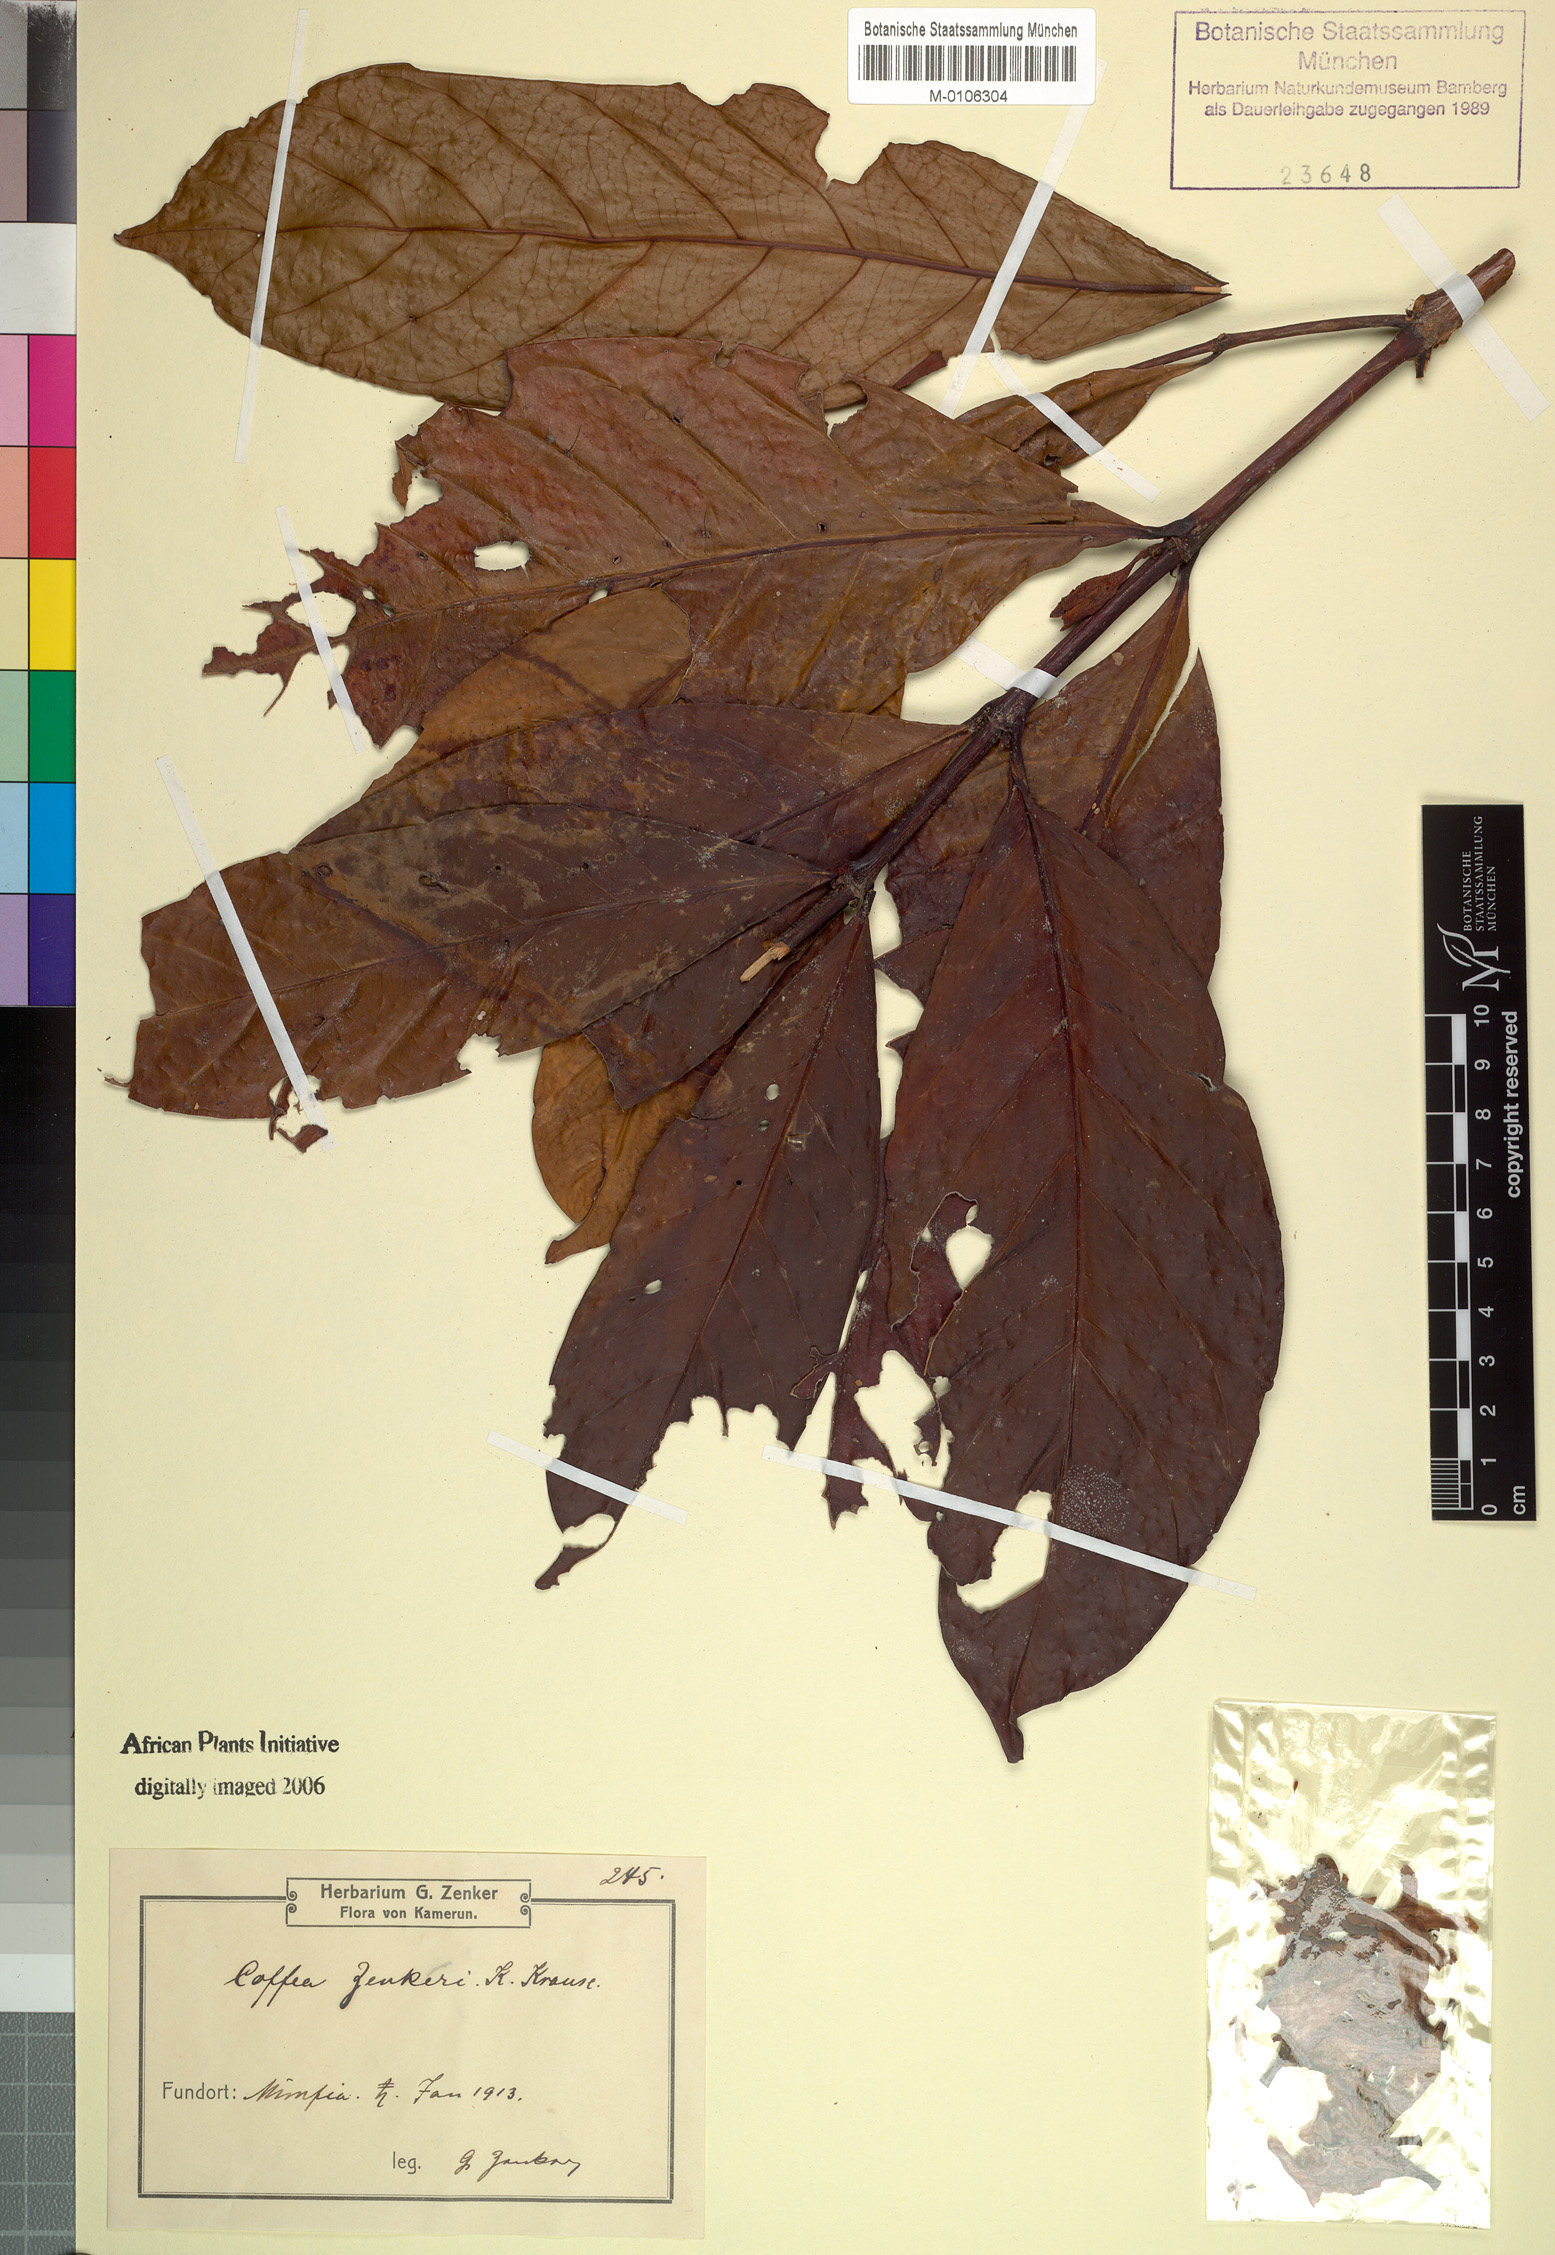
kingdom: Plantae
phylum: Tracheophyta
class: Magnoliopsida
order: Gentianales
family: Rubiaceae
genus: Coffea
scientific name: Coffea liberica
